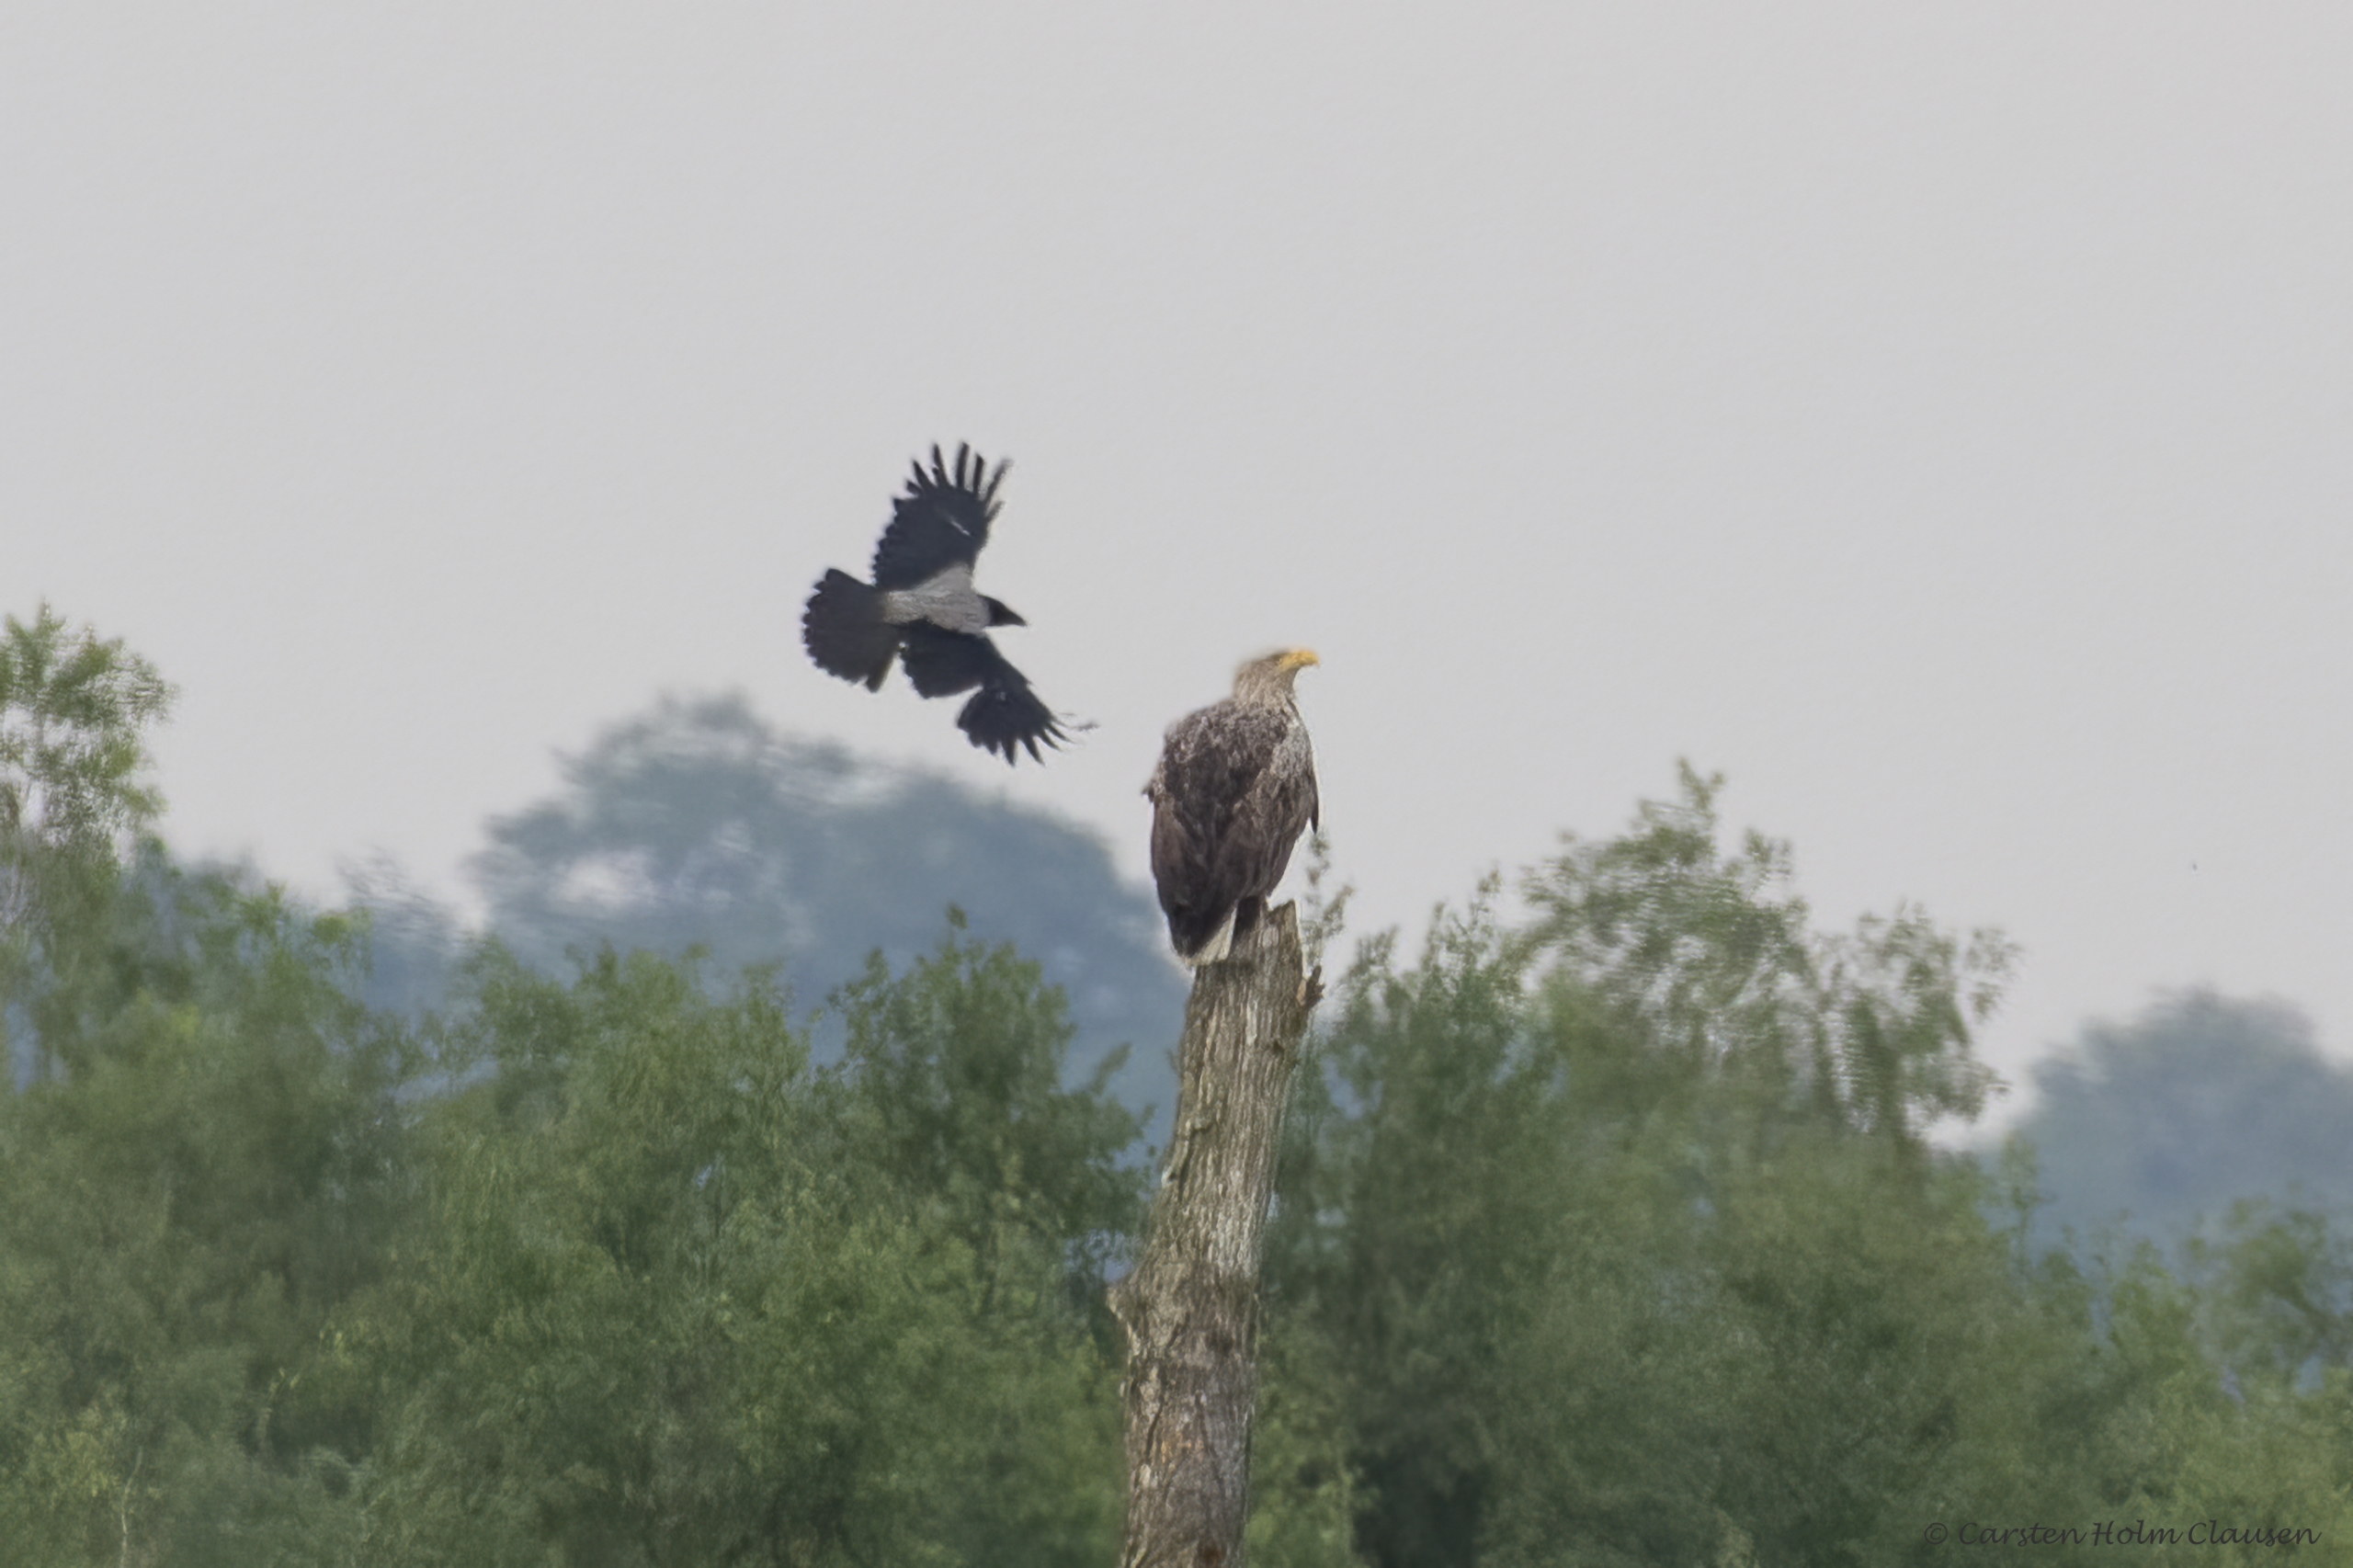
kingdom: Animalia
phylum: Chordata
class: Aves
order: Accipitriformes
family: Accipitridae
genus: Haliaeetus
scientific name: Haliaeetus albicilla
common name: Havørn
